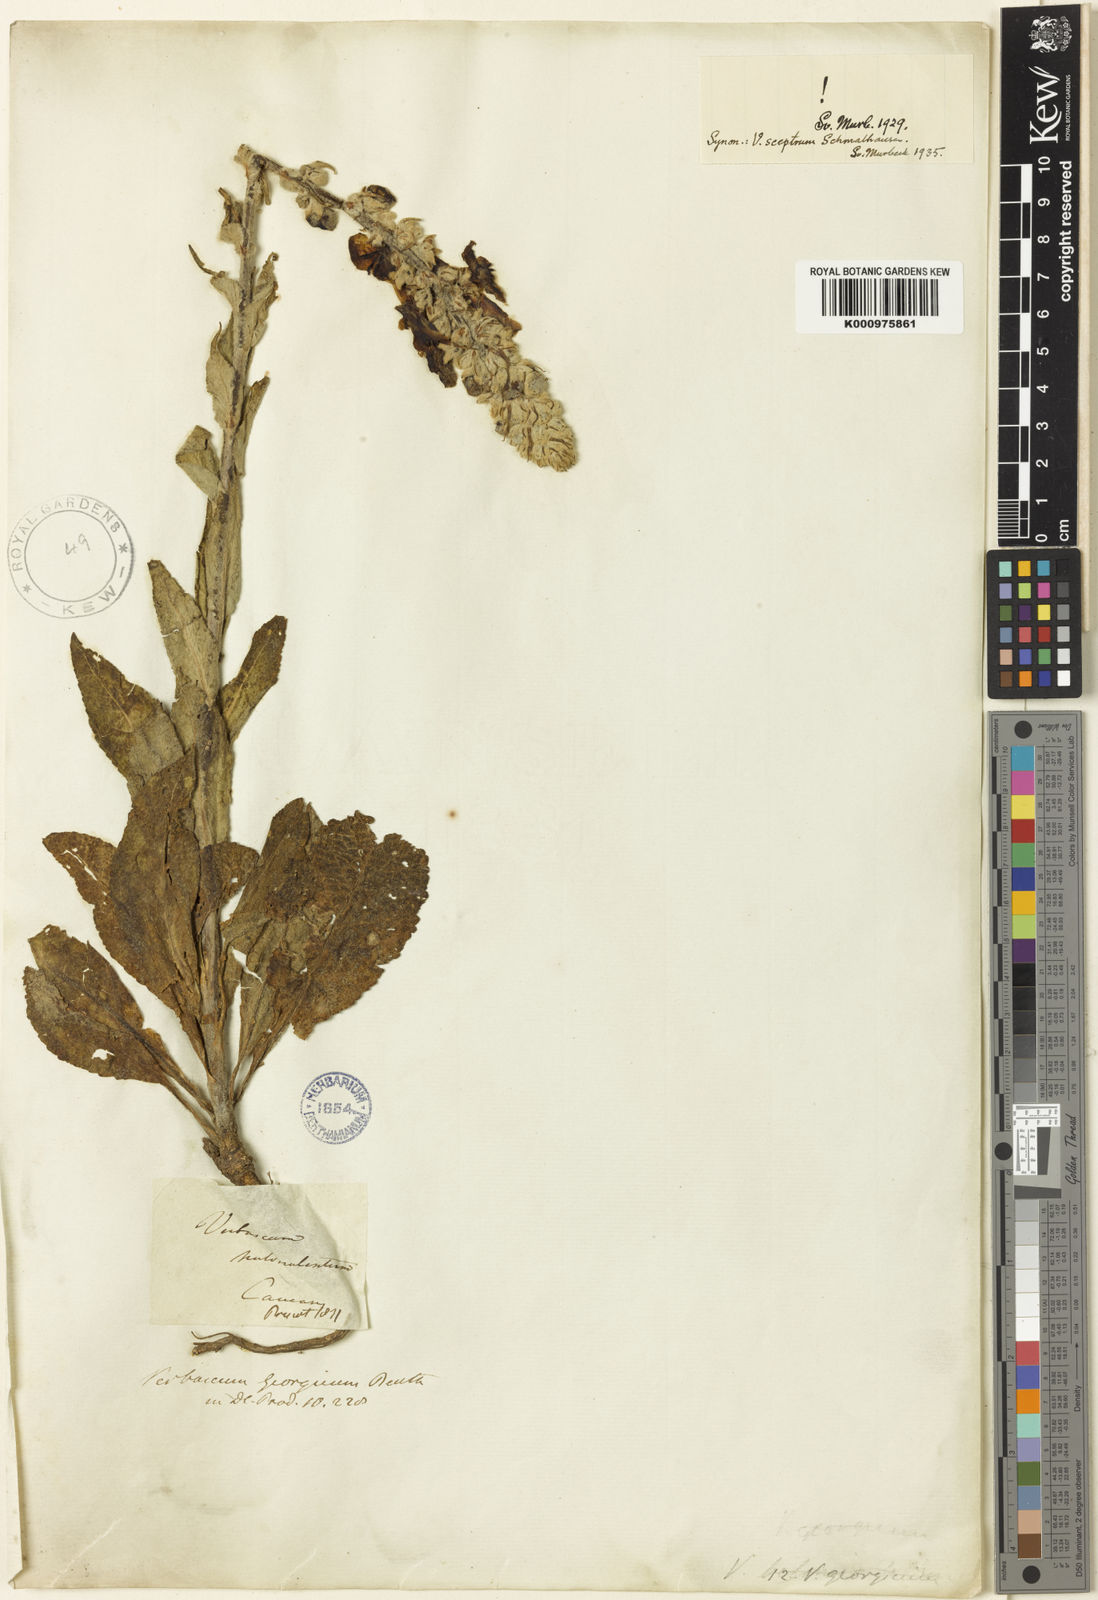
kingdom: Plantae
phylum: Tracheophyta
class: Magnoliopsida
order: Lamiales
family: Scrophulariaceae
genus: Verbascum
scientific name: Verbascum georgicum
